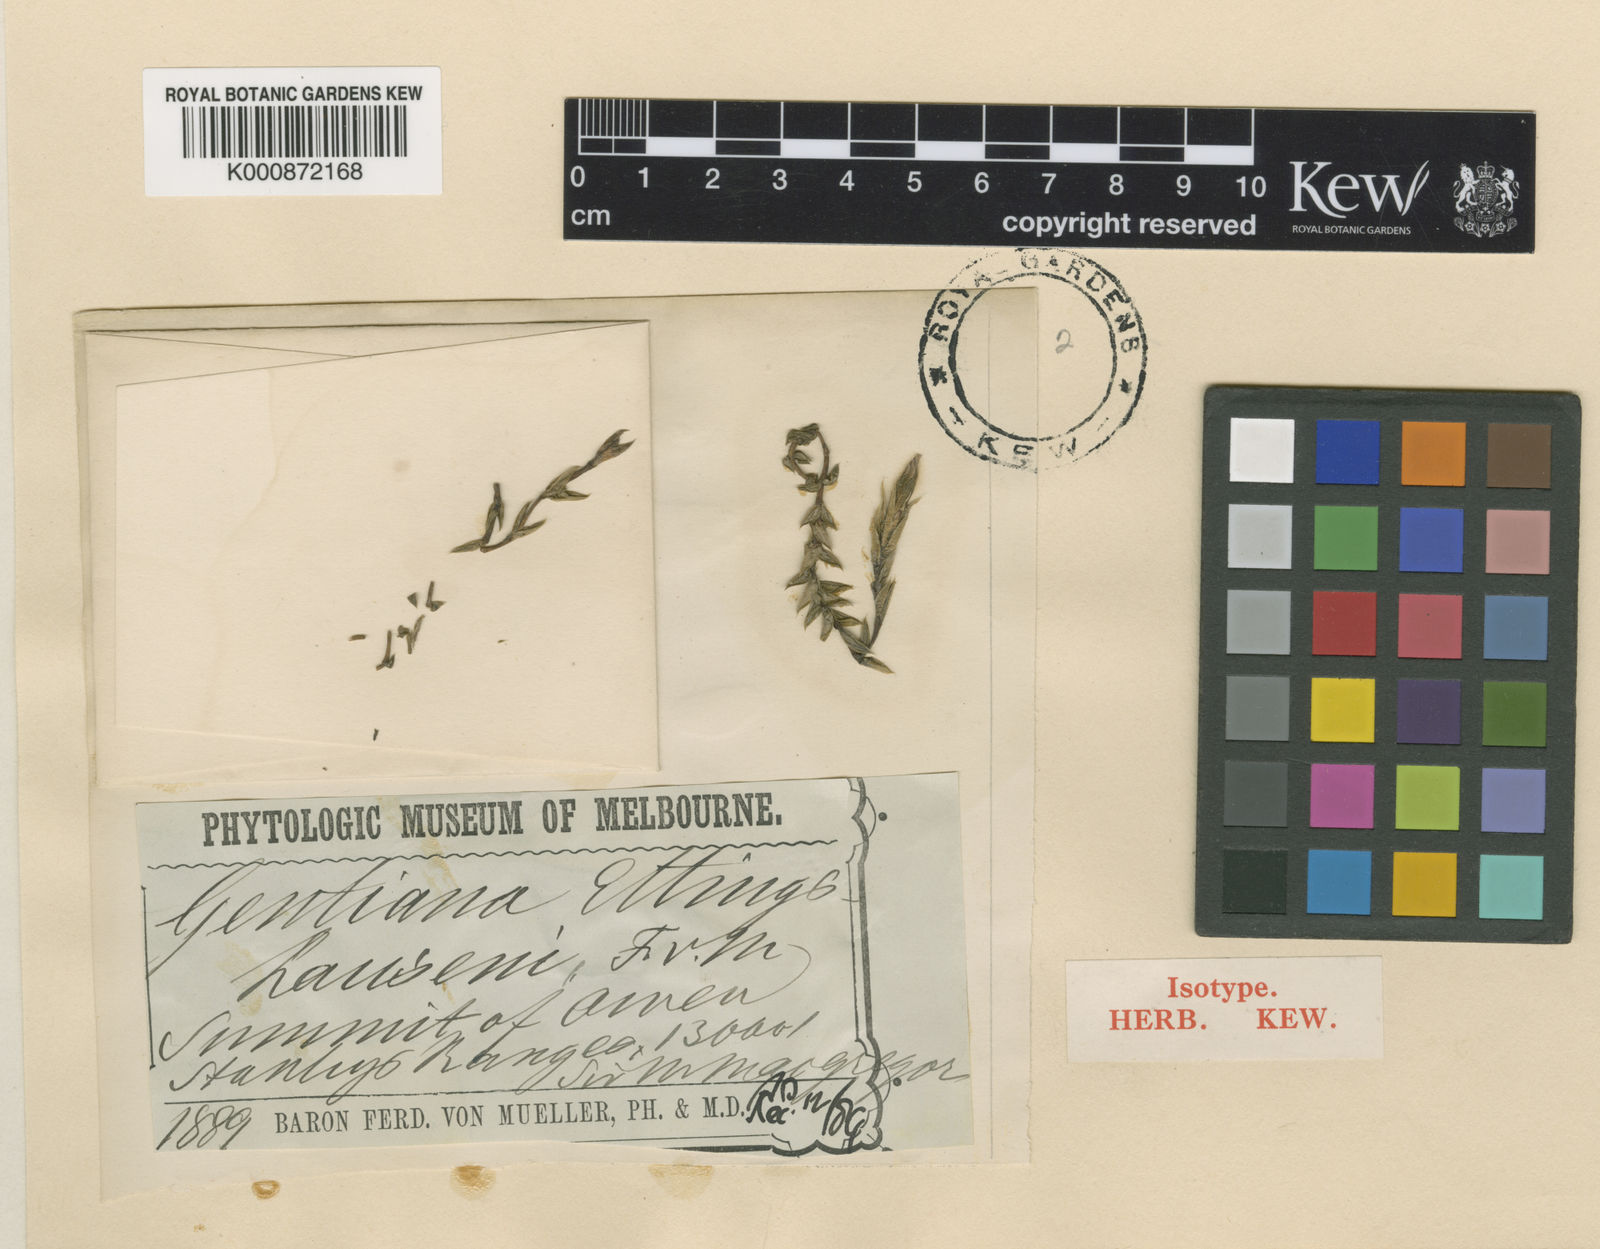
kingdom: Plantae
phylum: Tracheophyta
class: Magnoliopsida
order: Gentianales
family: Gentianaceae
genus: Gentiana
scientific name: Gentiana ettingshausenii
